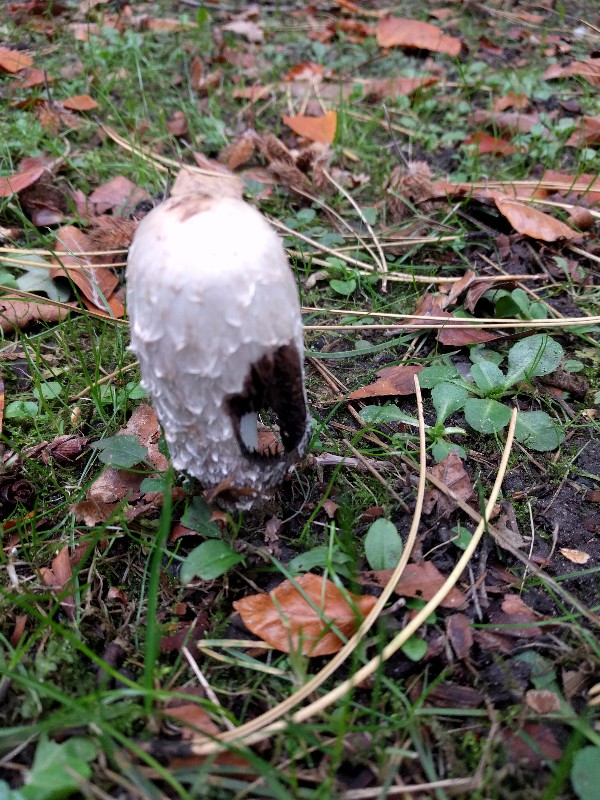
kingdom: Fungi
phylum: Basidiomycota
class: Agaricomycetes
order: Agaricales
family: Agaricaceae
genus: Coprinus
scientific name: Coprinus comatus
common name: stor parykhat
